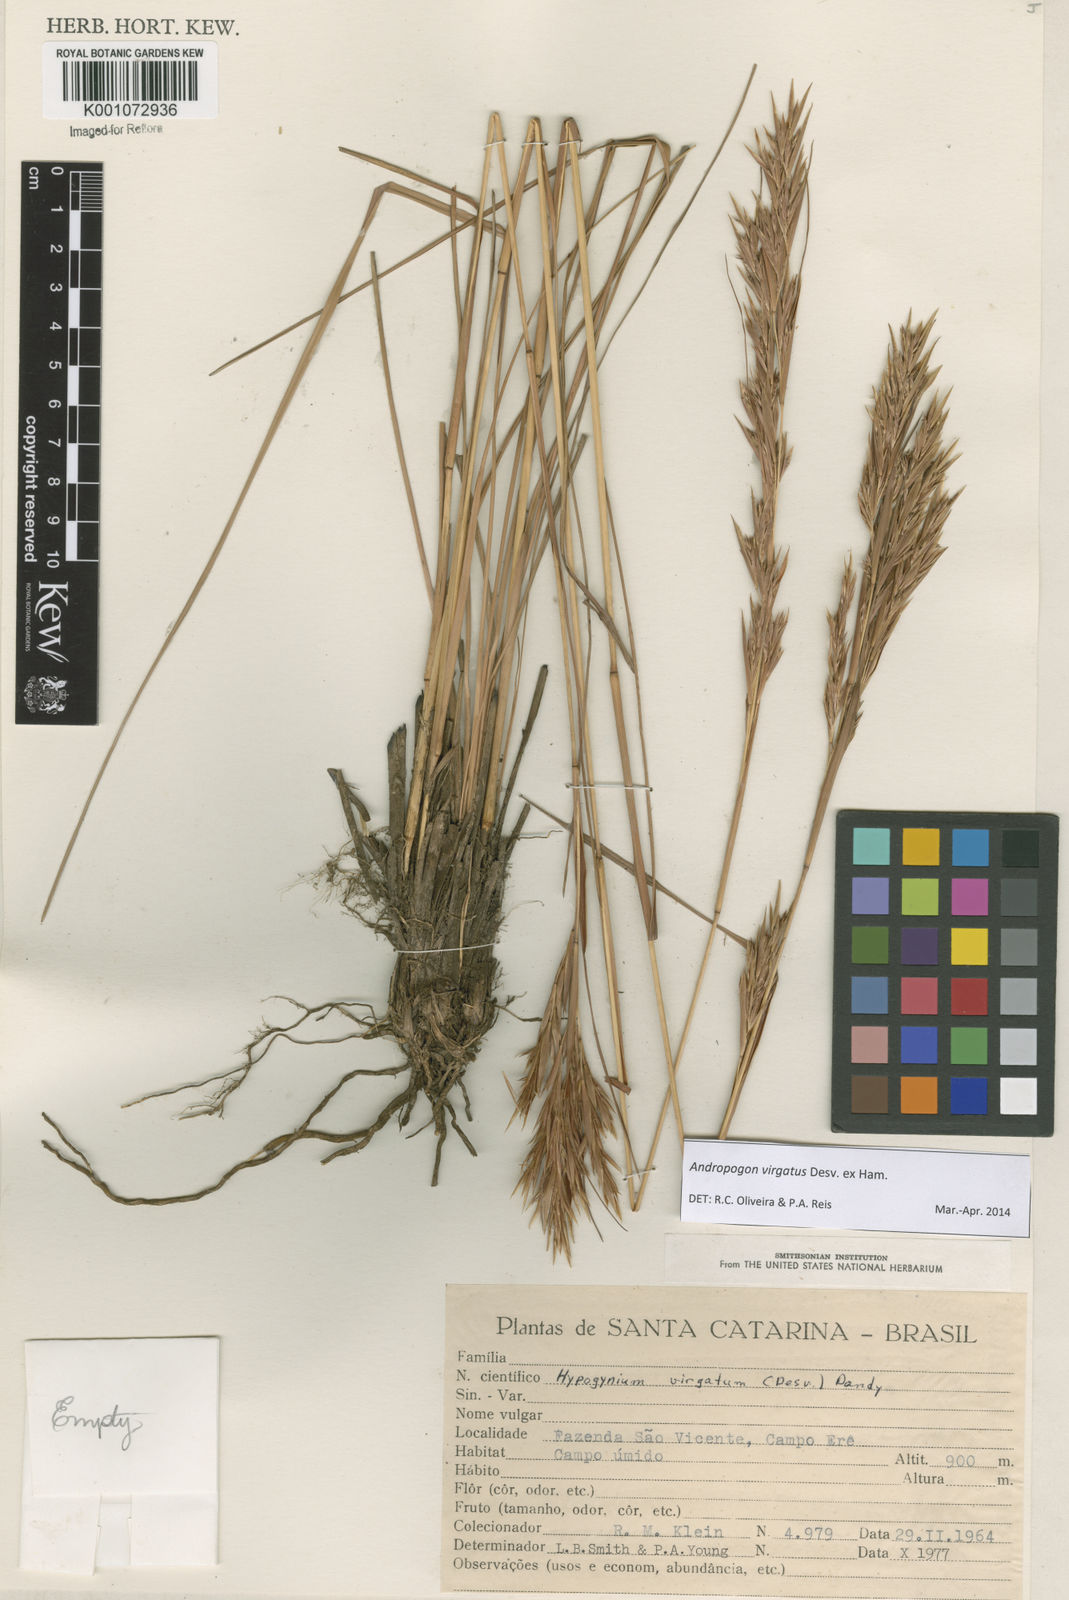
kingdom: Plantae
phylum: Tracheophyta
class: Liliopsida
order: Poales
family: Poaceae
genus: Andropogon
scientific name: Andropogon virgatus
